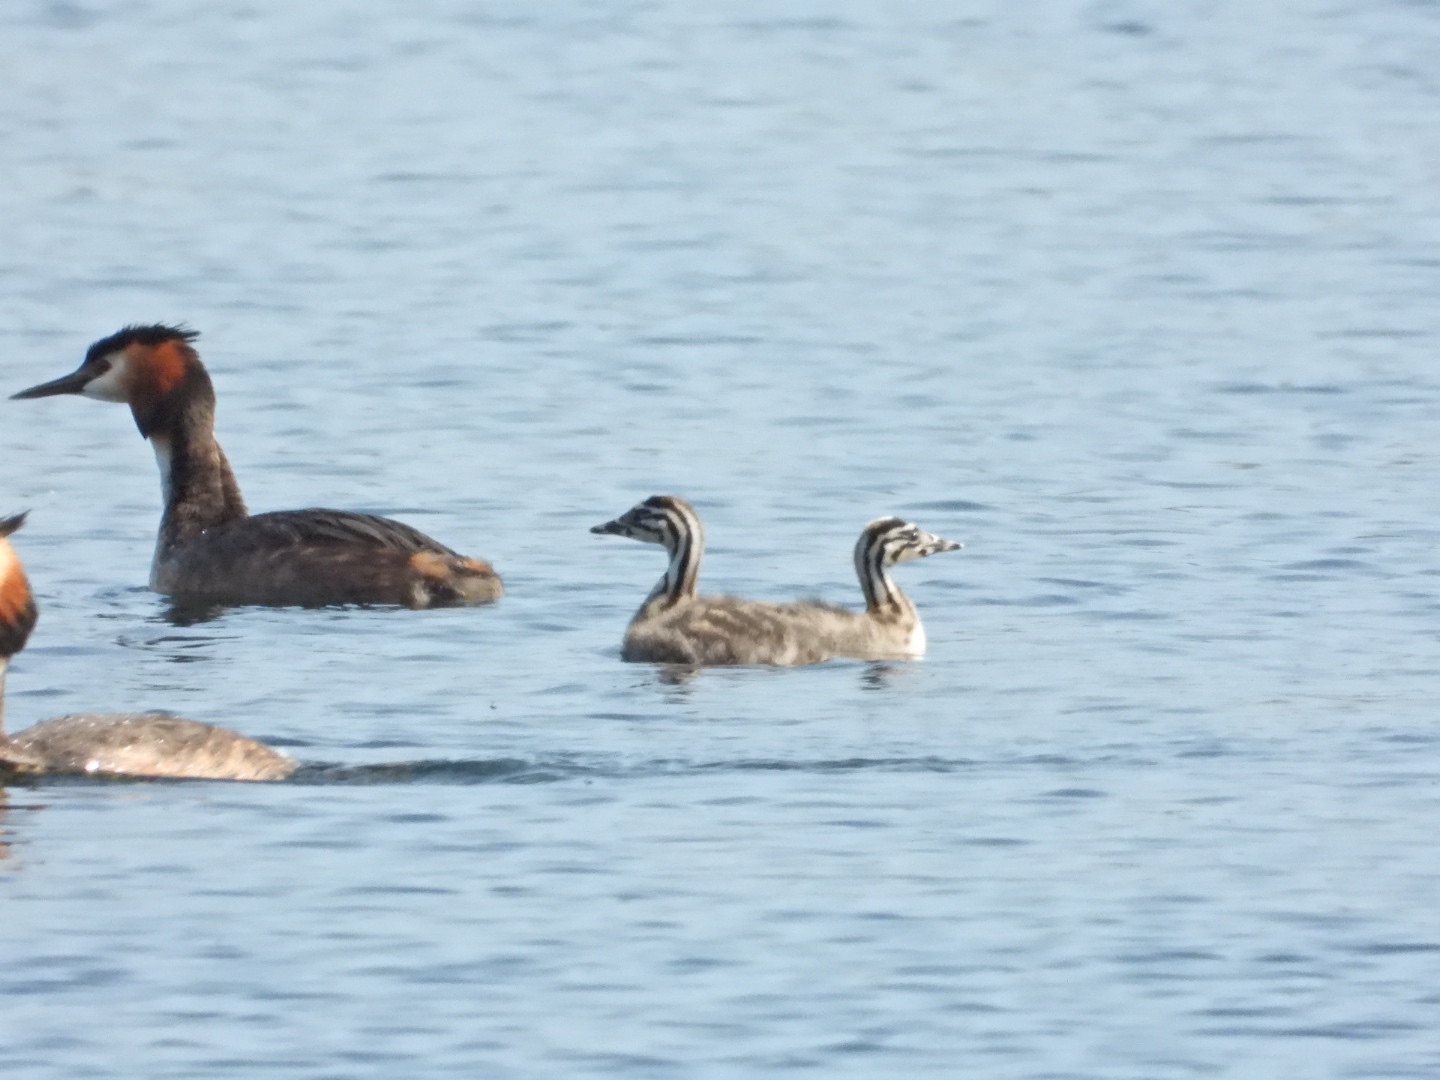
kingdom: Animalia
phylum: Chordata
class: Aves
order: Podicipediformes
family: Podicipedidae
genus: Podiceps
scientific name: Podiceps cristatus
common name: Toppet lappedykker
